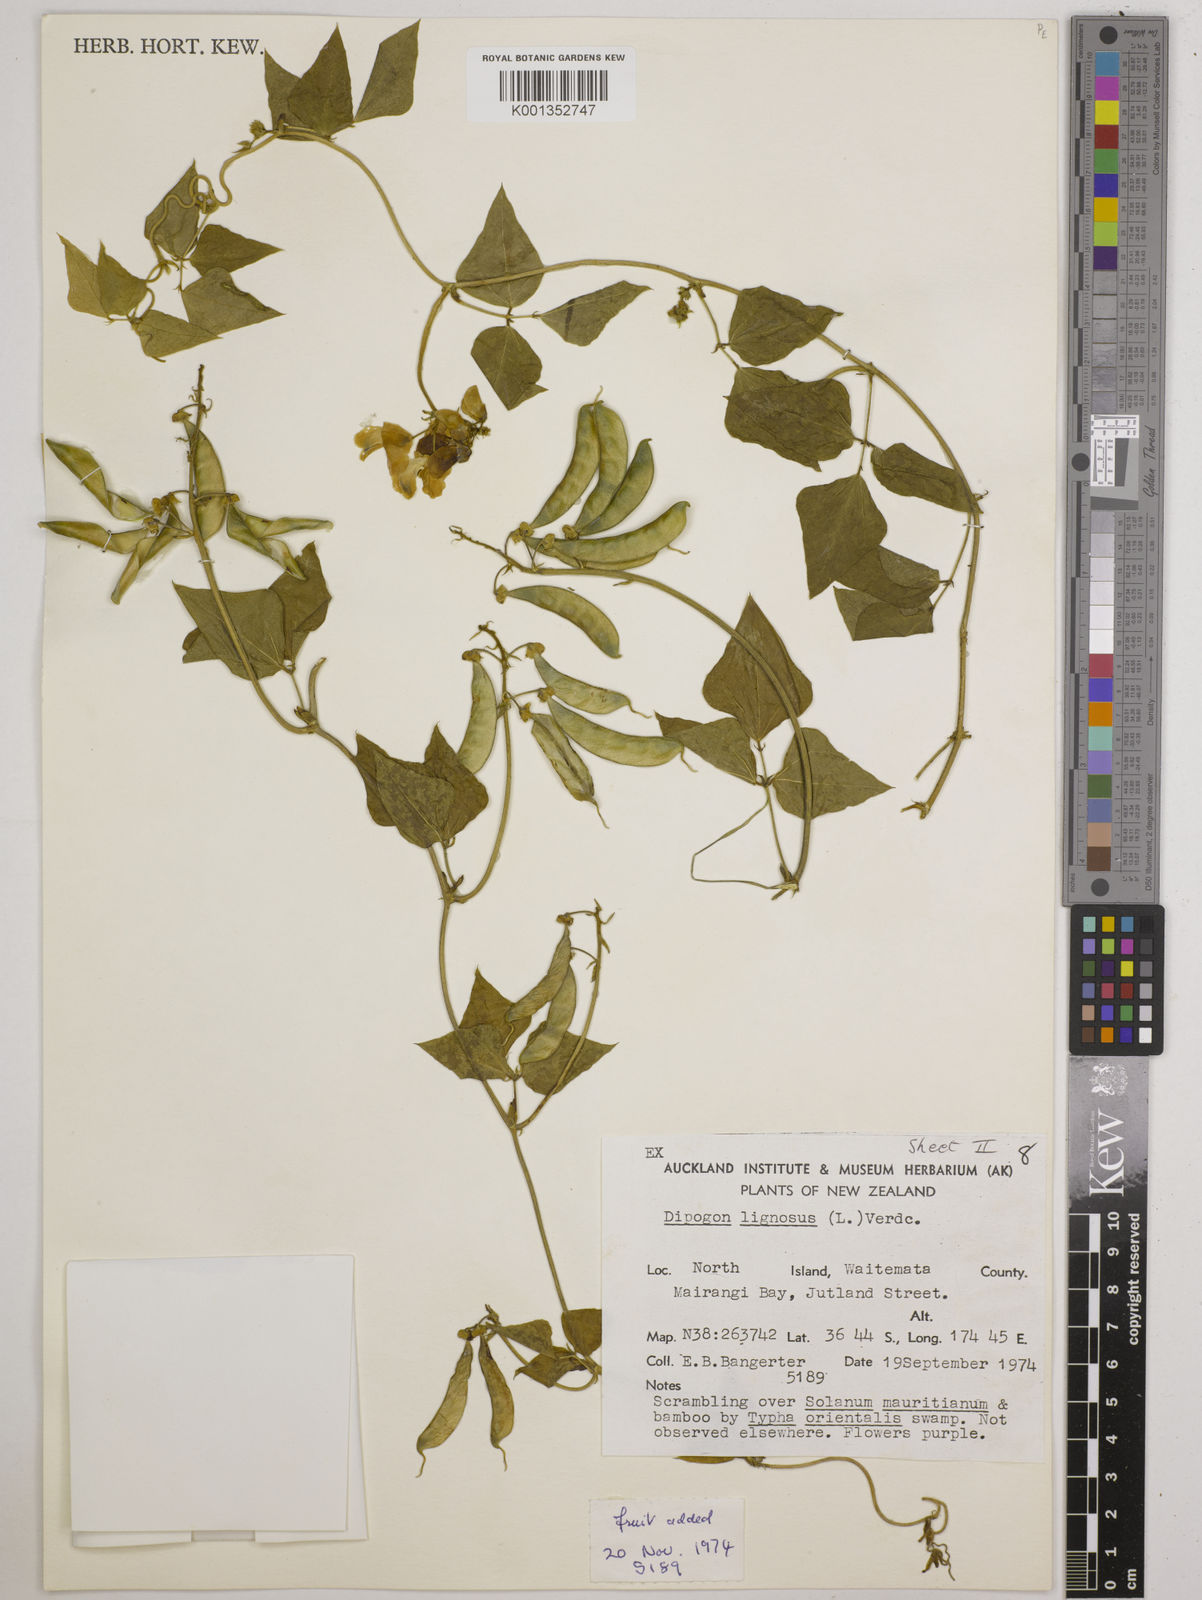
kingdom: Plantae
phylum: Tracheophyta
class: Magnoliopsida
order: Fabales
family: Fabaceae
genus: Dipogon
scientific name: Dipogon lignosus
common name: Okie bean
